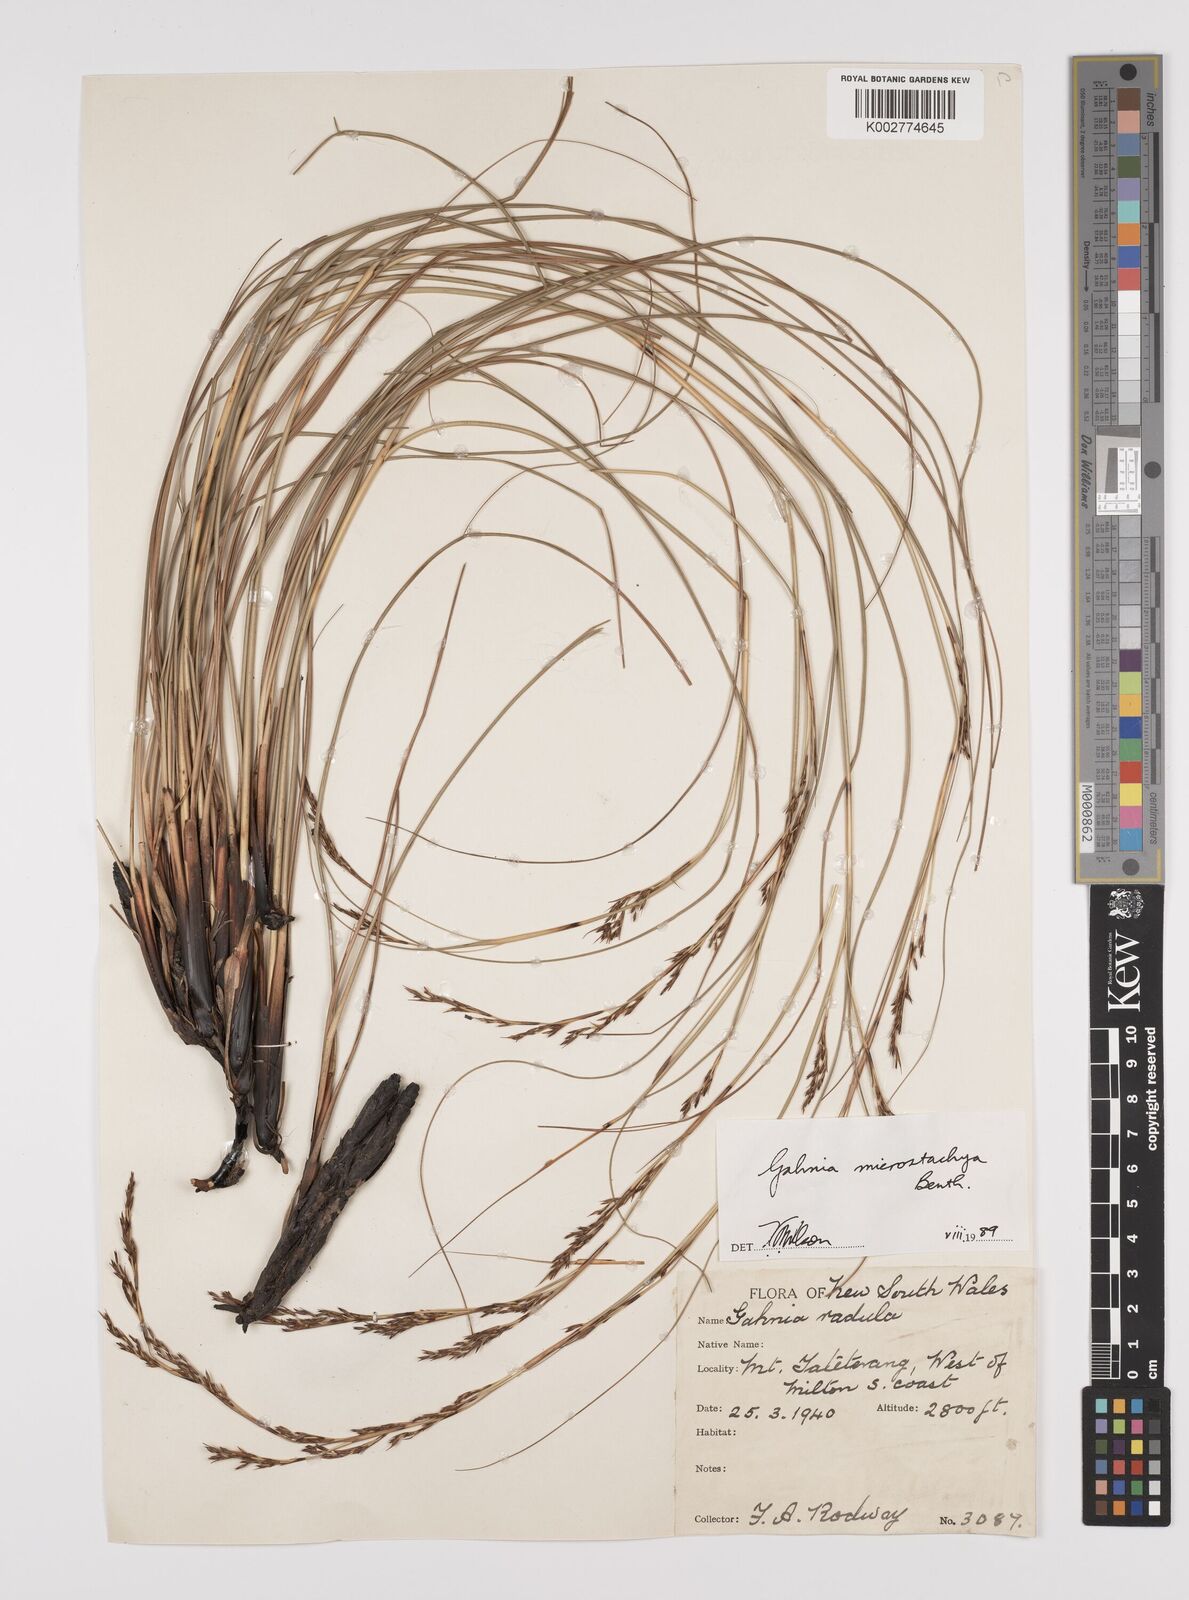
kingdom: Plantae
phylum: Tracheophyta
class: Liliopsida
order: Poales
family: Cyperaceae
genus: Gahnia
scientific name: Gahnia microstachya
